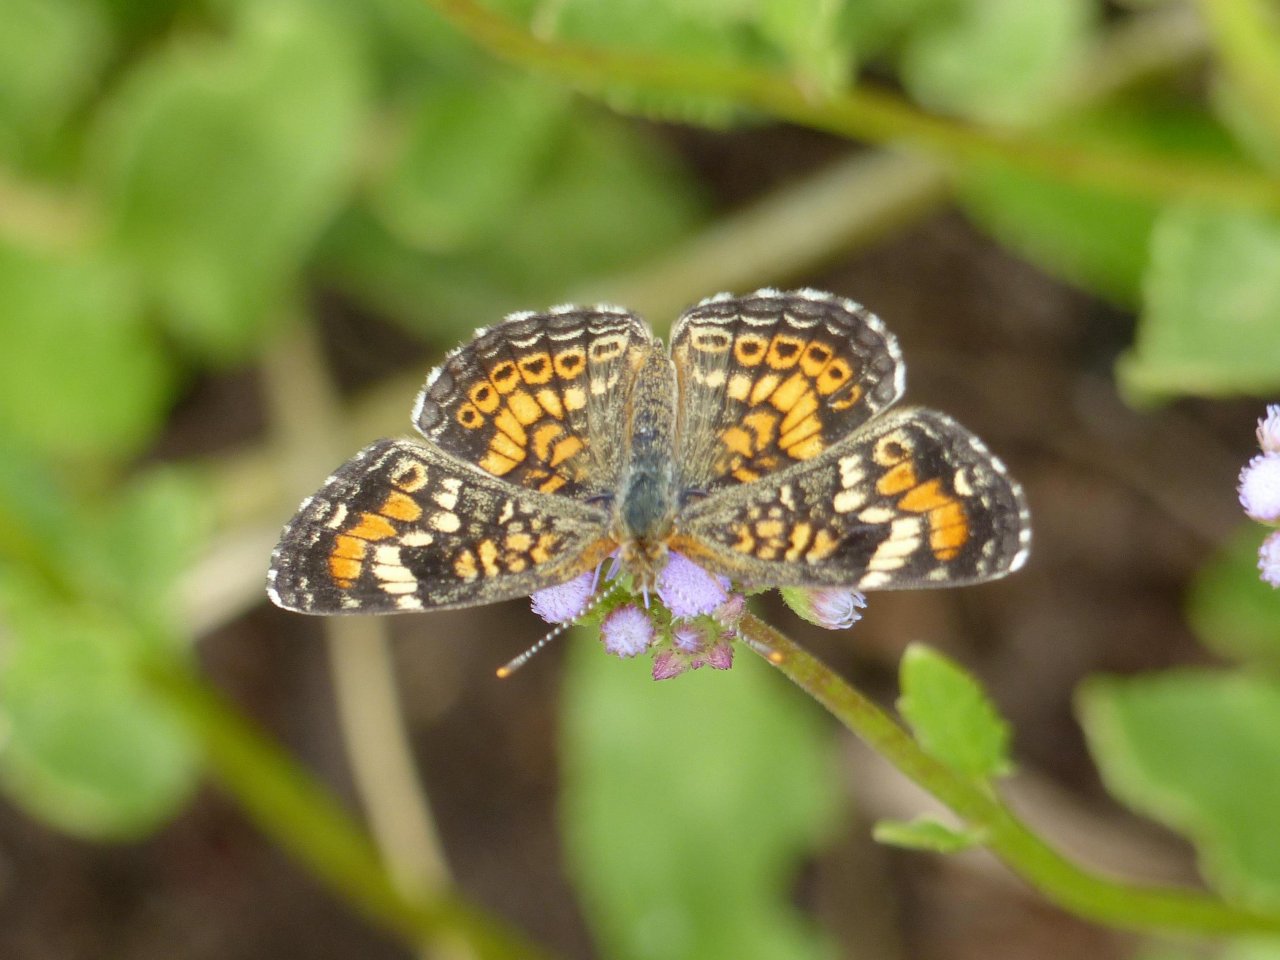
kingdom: Animalia
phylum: Arthropoda
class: Insecta
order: Lepidoptera
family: Nymphalidae
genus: Phyciodes
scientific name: Phyciodes phaon
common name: Phaon Crescent
